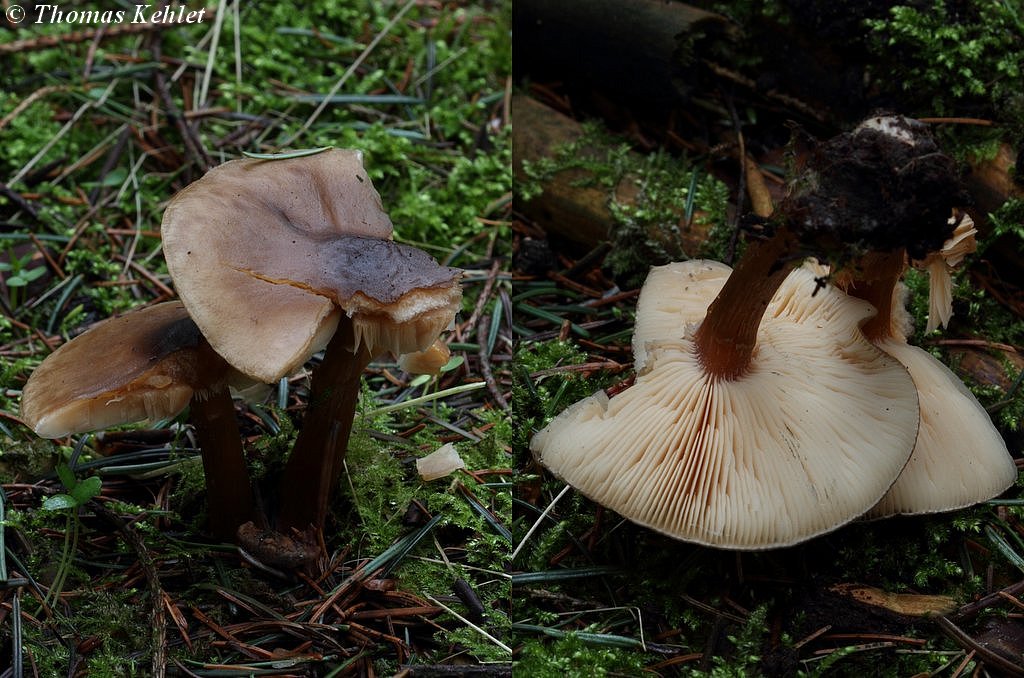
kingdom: Fungi
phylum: Basidiomycota
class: Agaricomycetes
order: Agaricales
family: Tricholomataceae
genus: Melanoleuca
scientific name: Melanoleuca cognata
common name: gyldengrå munkehat
